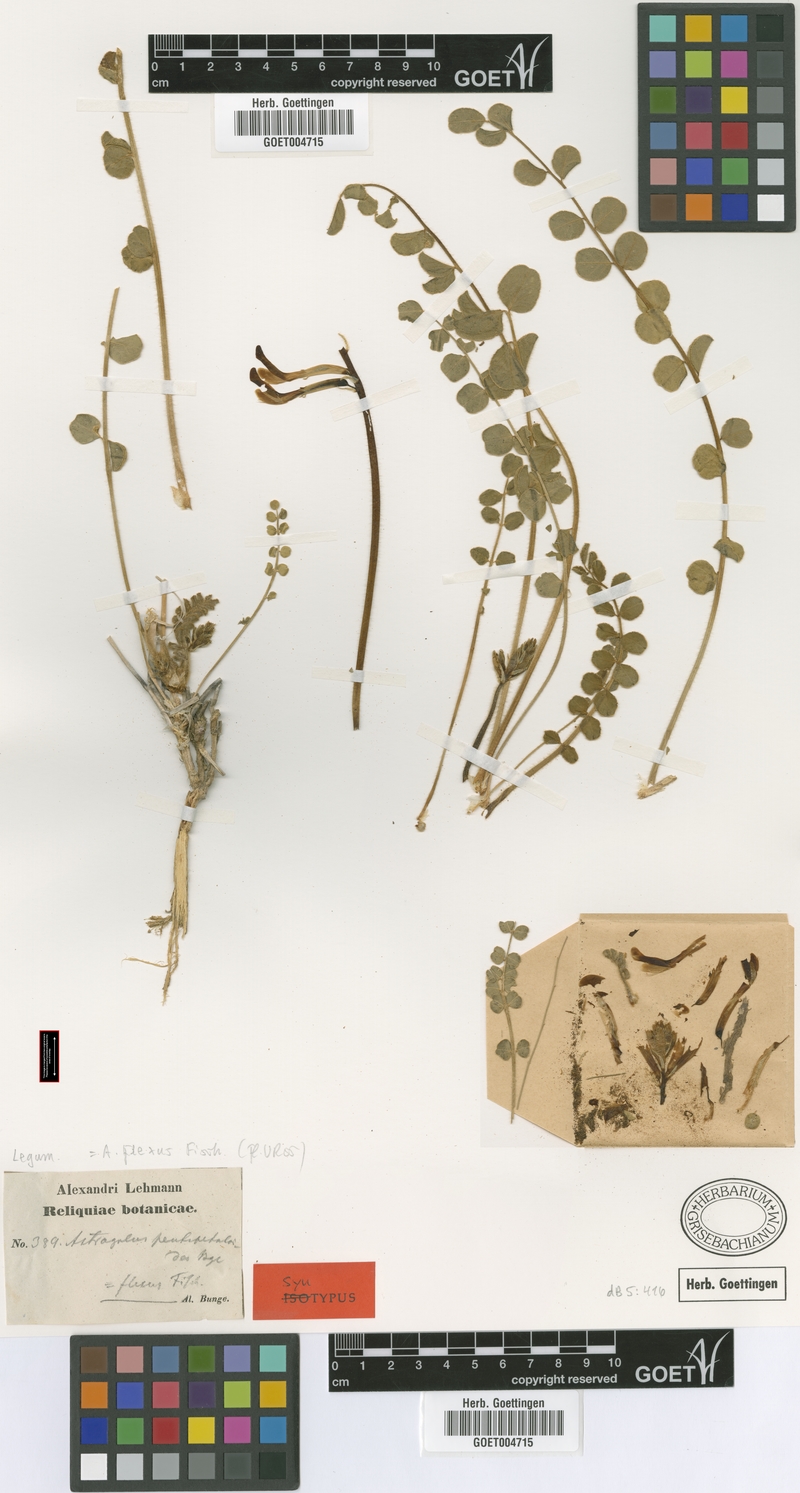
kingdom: Plantae
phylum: Tracheophyta
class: Magnoliopsida
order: Fabales
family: Fabaceae
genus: Astragalus
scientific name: Astragalus flexus
